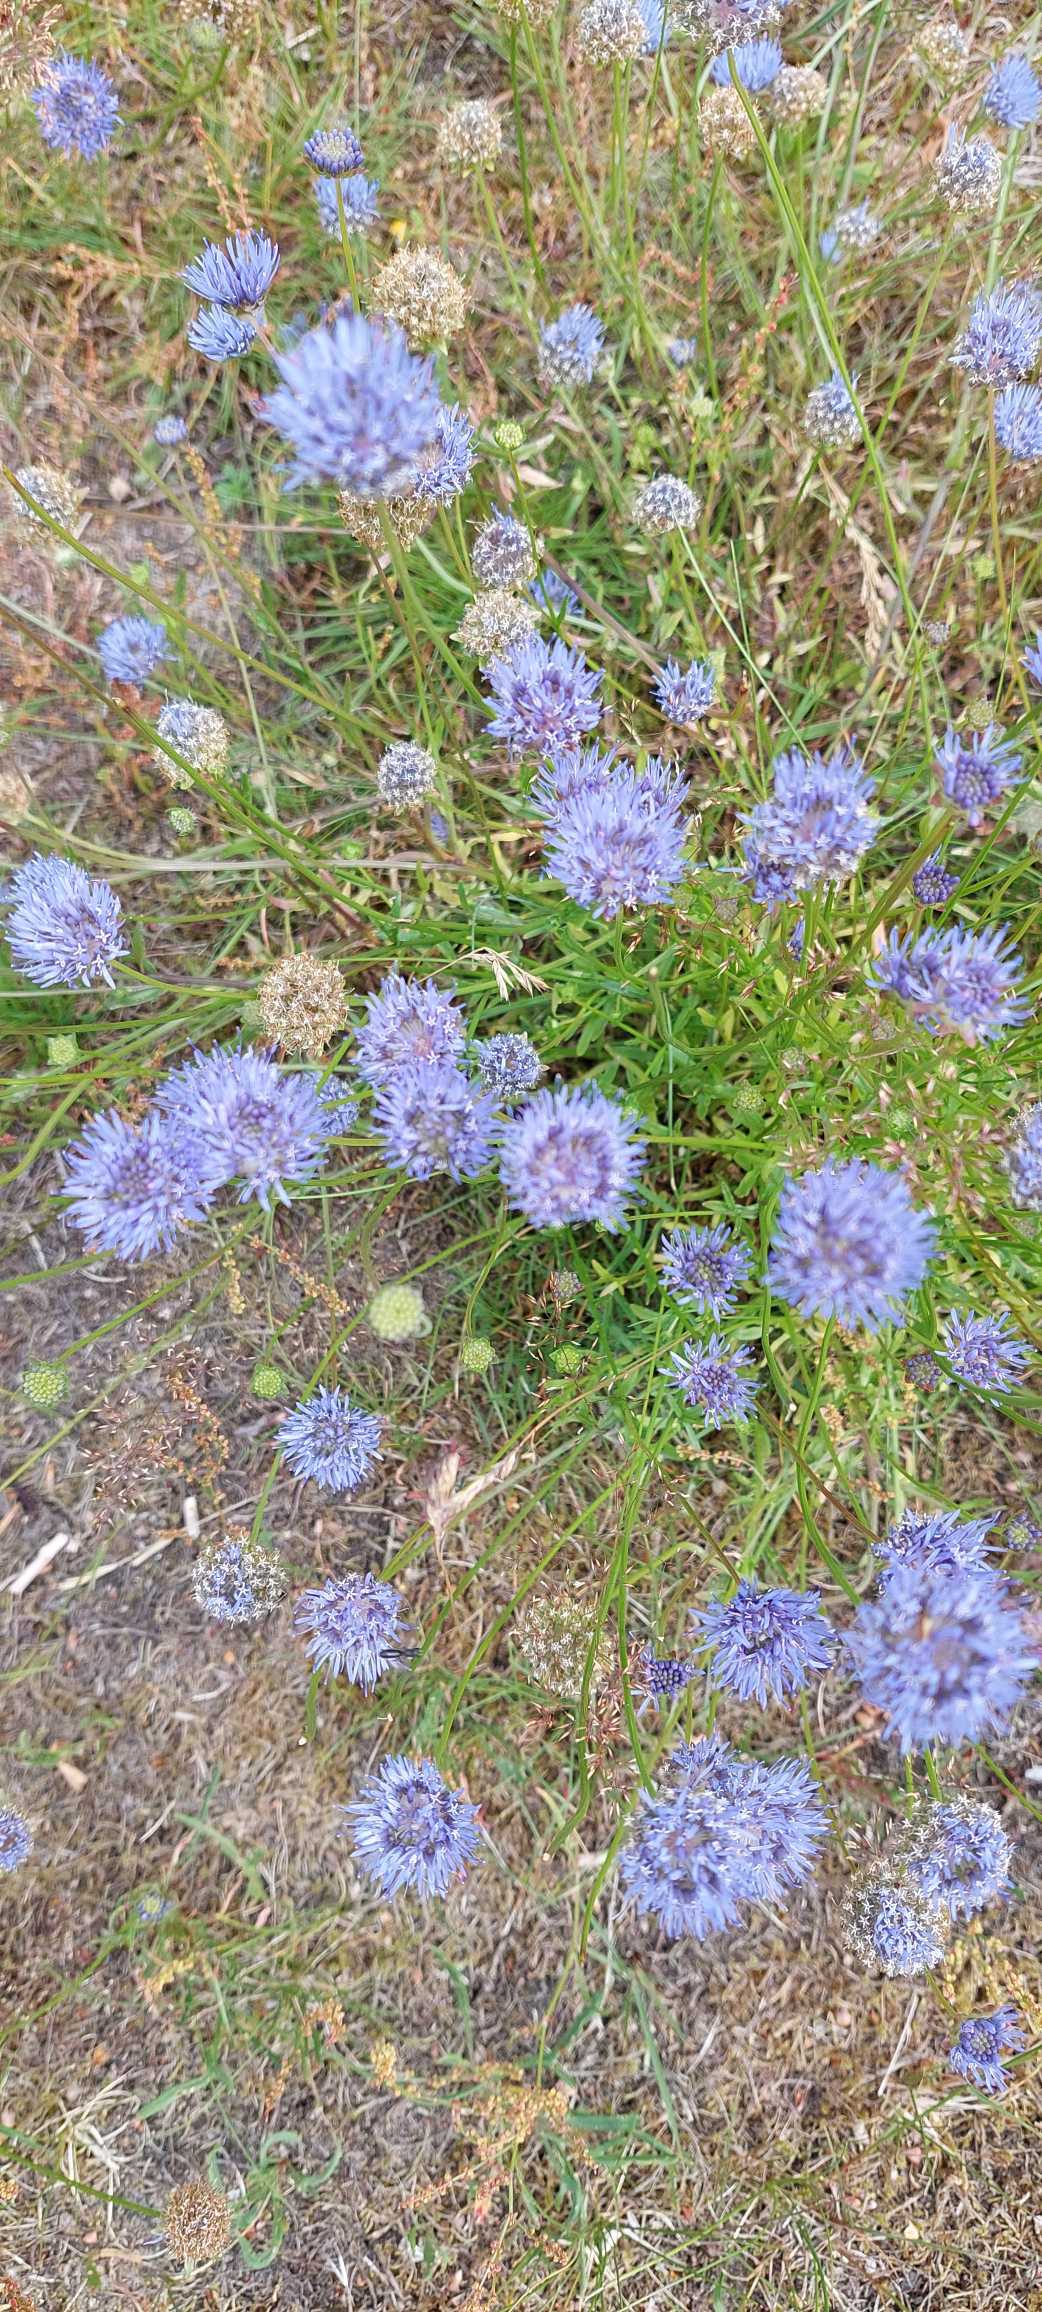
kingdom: Plantae
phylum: Tracheophyta
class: Magnoliopsida
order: Asterales
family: Campanulaceae
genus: Jasione
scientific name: Jasione montana
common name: Blåmunke
